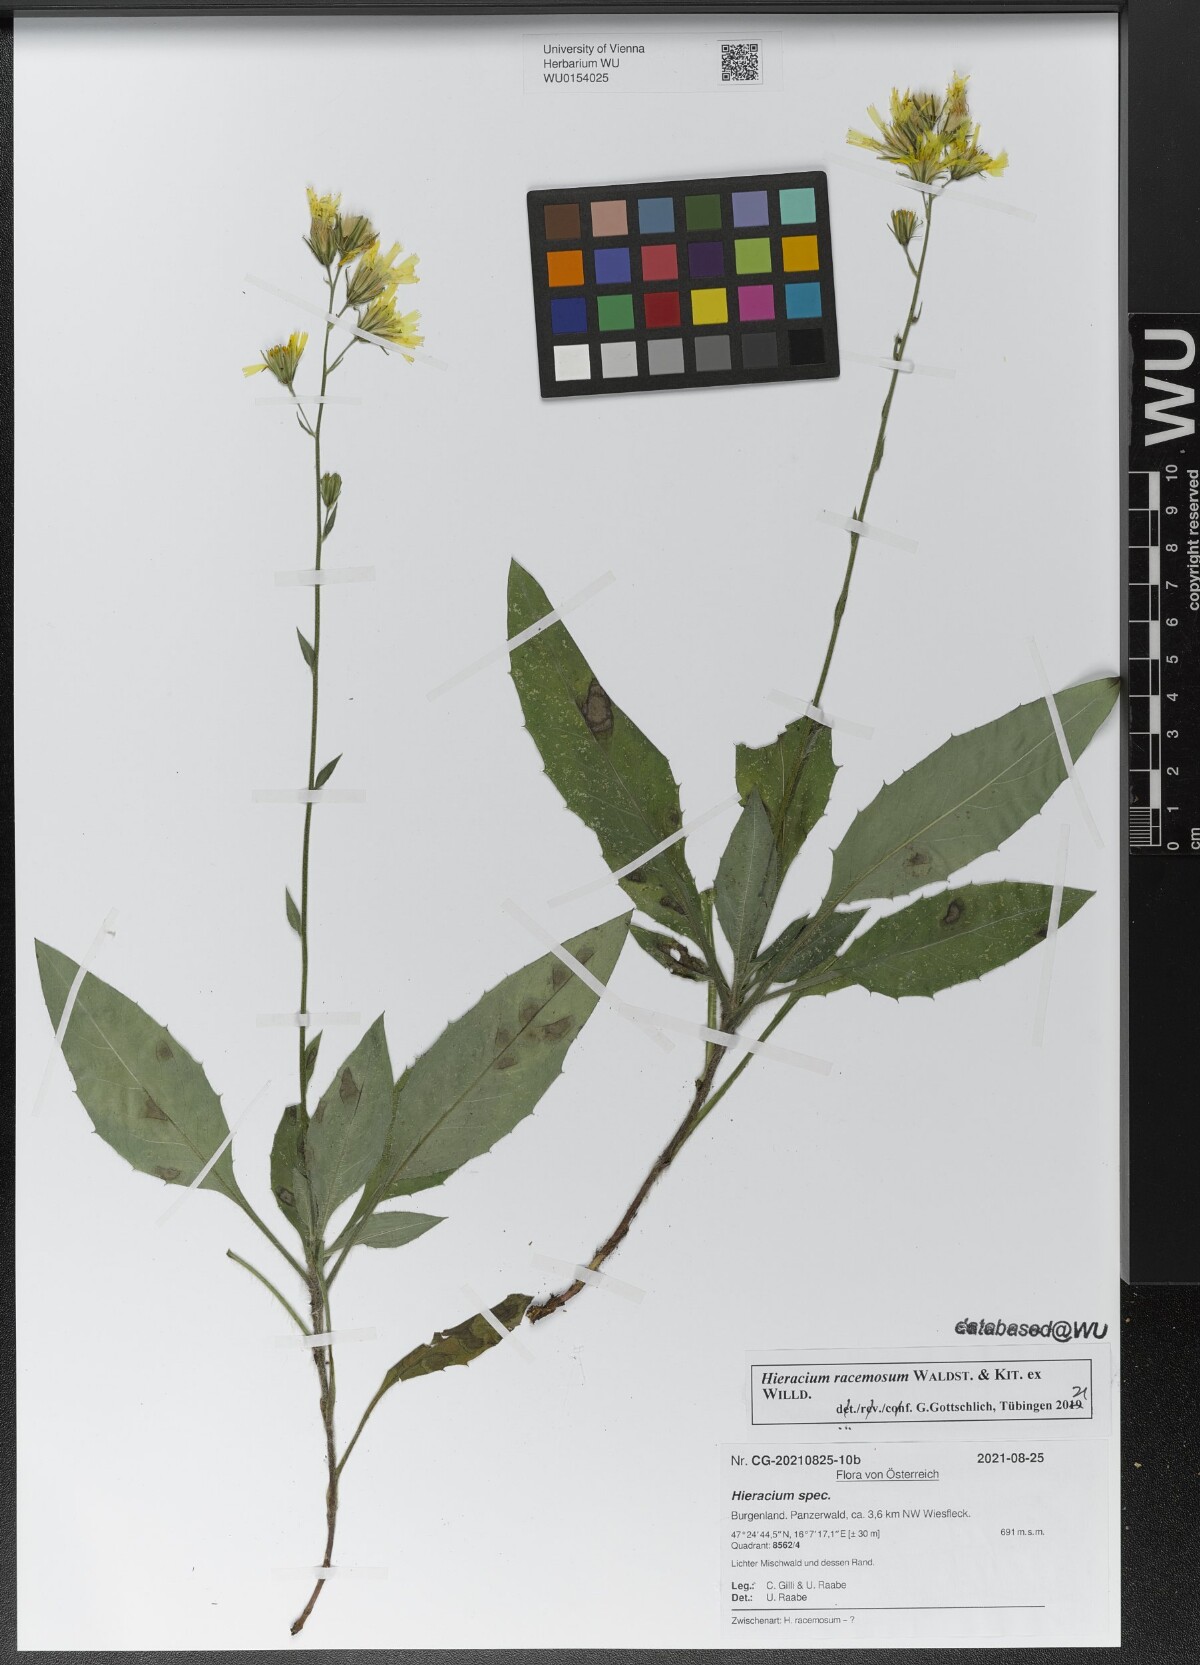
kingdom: Plantae
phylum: Tracheophyta
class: Magnoliopsida
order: Asterales
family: Asteraceae
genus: Hieracium
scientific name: Hieracium racemosum
